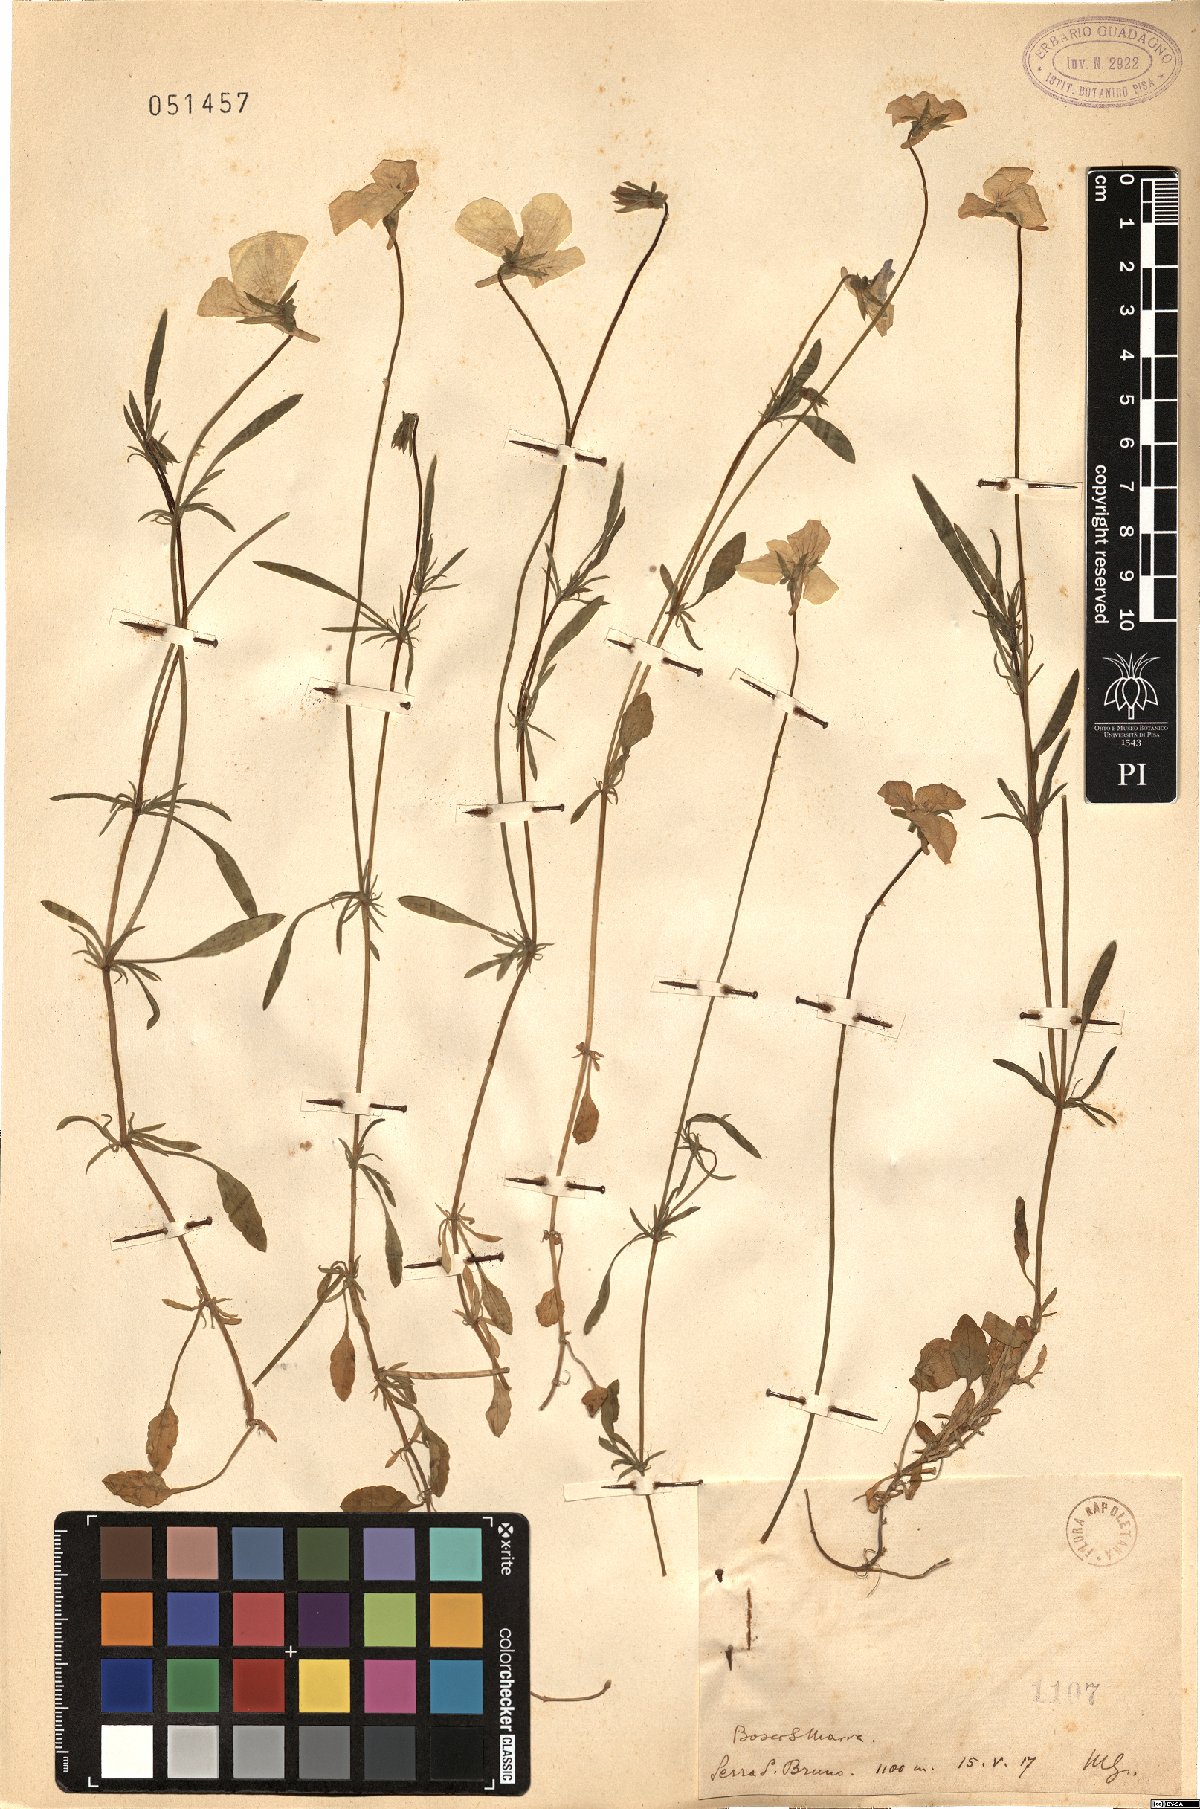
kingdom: Plantae
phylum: Tracheophyta
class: Magnoliopsida
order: Malpighiales
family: Violaceae
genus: Viola
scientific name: Viola
